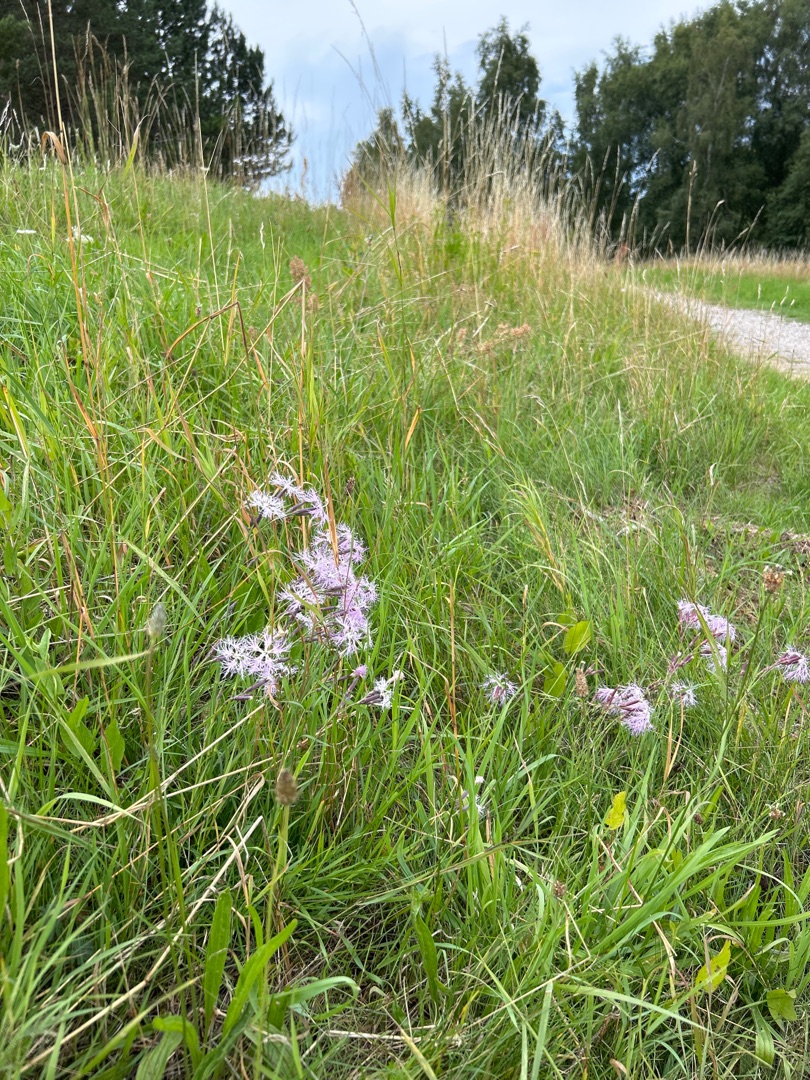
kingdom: Plantae
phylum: Tracheophyta
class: Magnoliopsida
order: Caryophyllales
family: Caryophyllaceae
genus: Dianthus
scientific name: Dianthus superbus
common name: Strand-nellike
